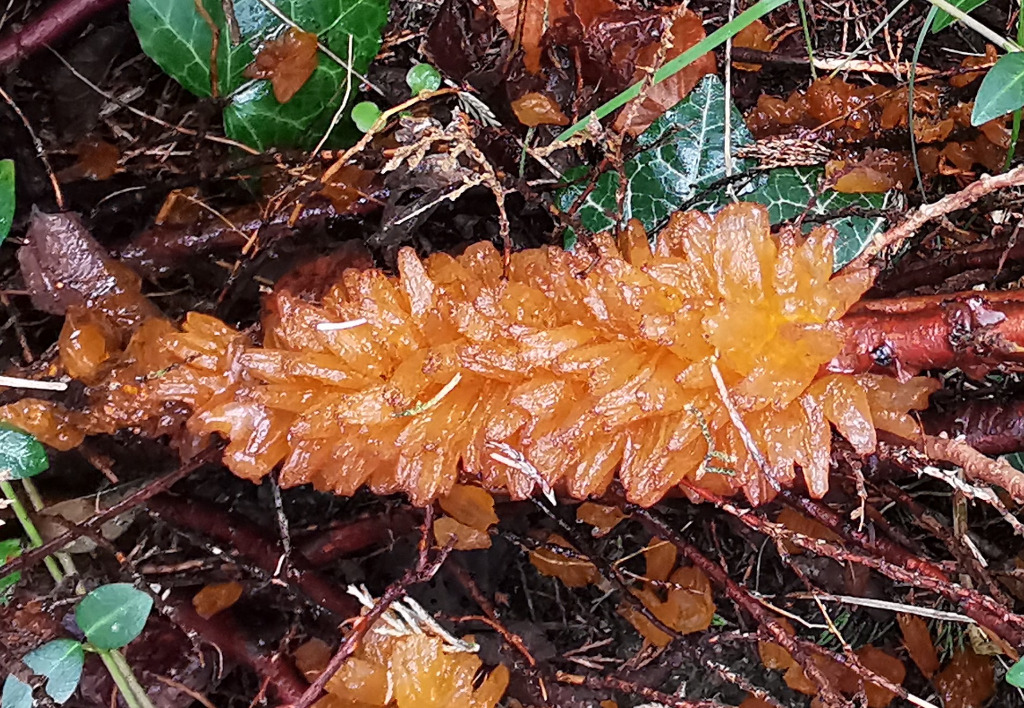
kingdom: Fungi
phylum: Basidiomycota
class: Pucciniomycetes
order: Pucciniales
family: Gymnosporangiaceae
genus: Gymnosporangium
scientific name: Gymnosporangium sabinae
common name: pæregitter-bævrerust
